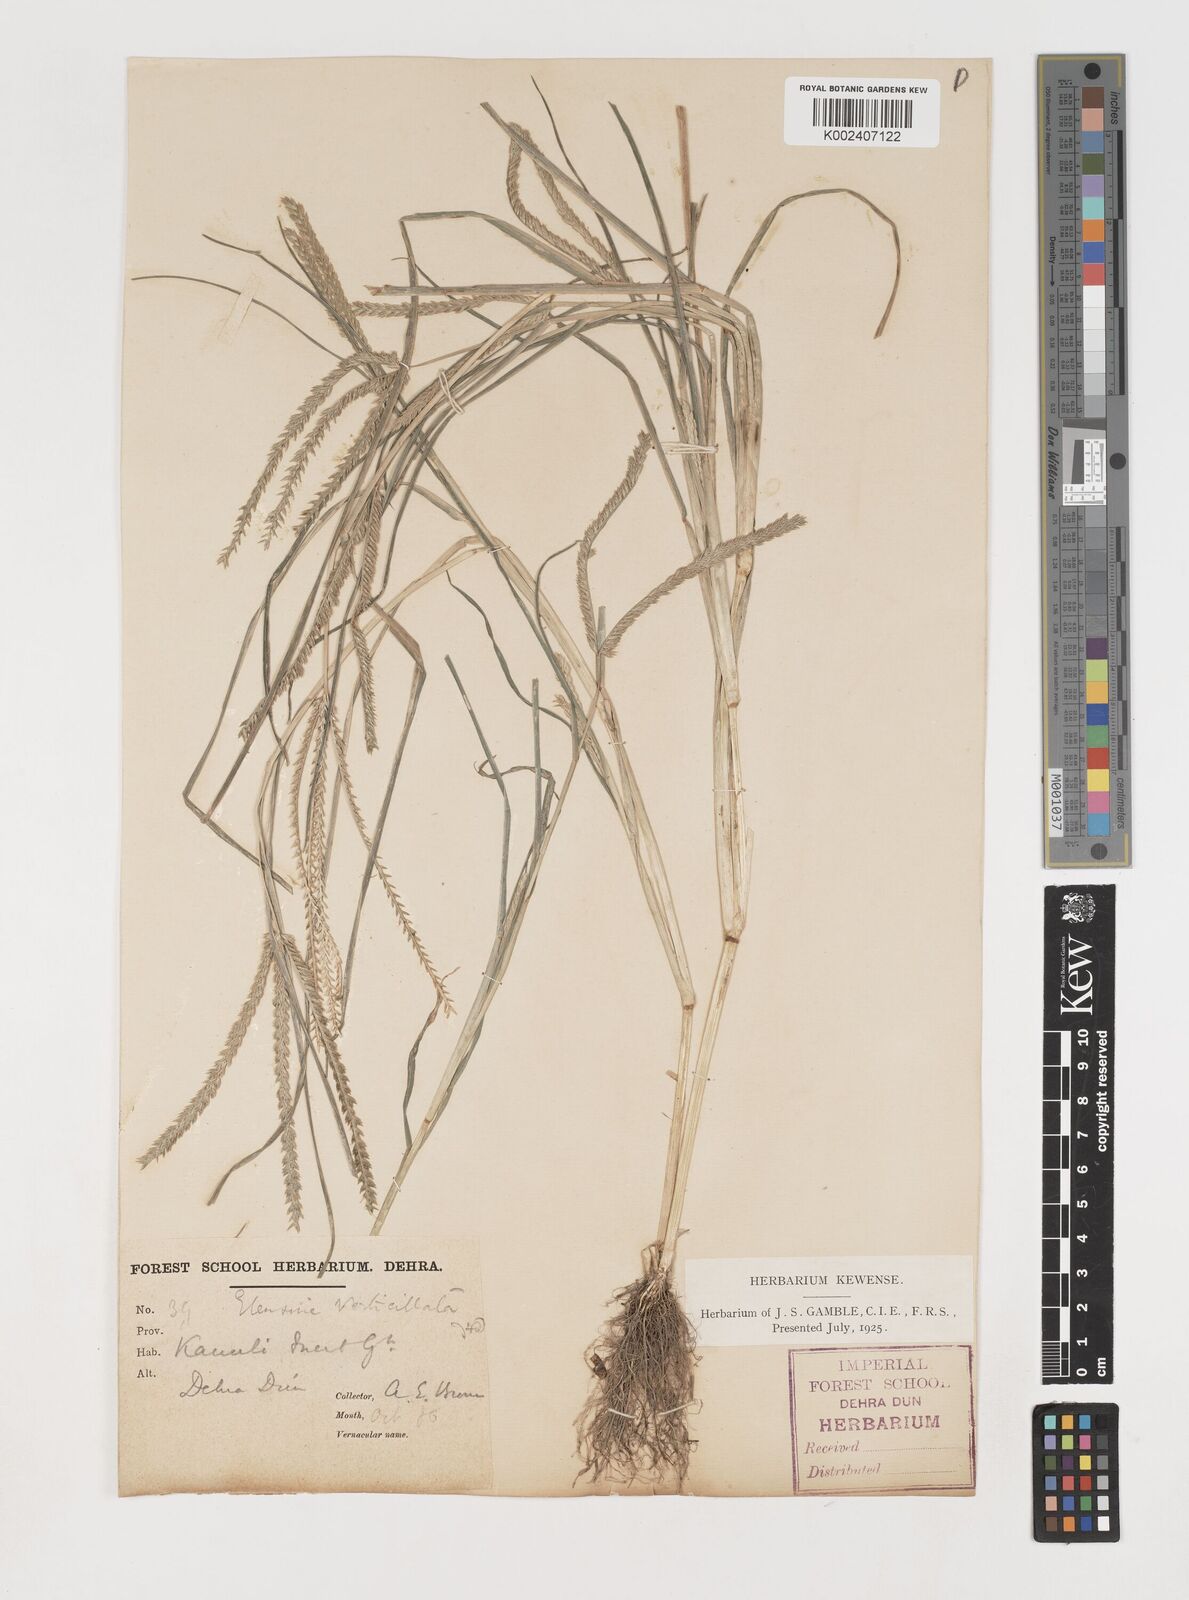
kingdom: Plantae
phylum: Tracheophyta
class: Liliopsida
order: Poales
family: Poaceae
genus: Eleusine
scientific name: Eleusine indica
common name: Yard-grass
